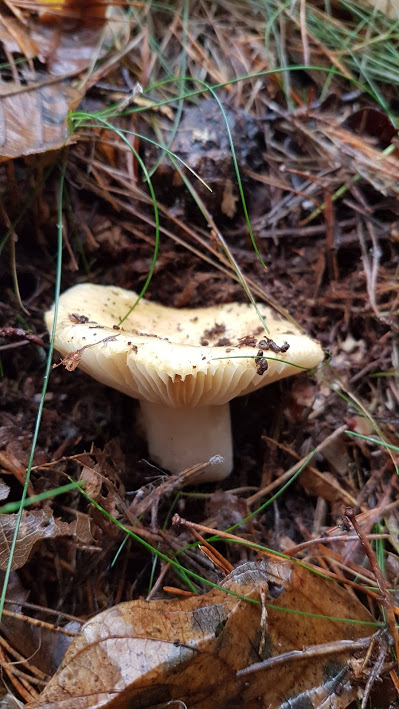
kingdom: Fungi
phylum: Basidiomycota
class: Agaricomycetes
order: Russulales
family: Russulaceae
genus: Russula
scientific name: Russula
